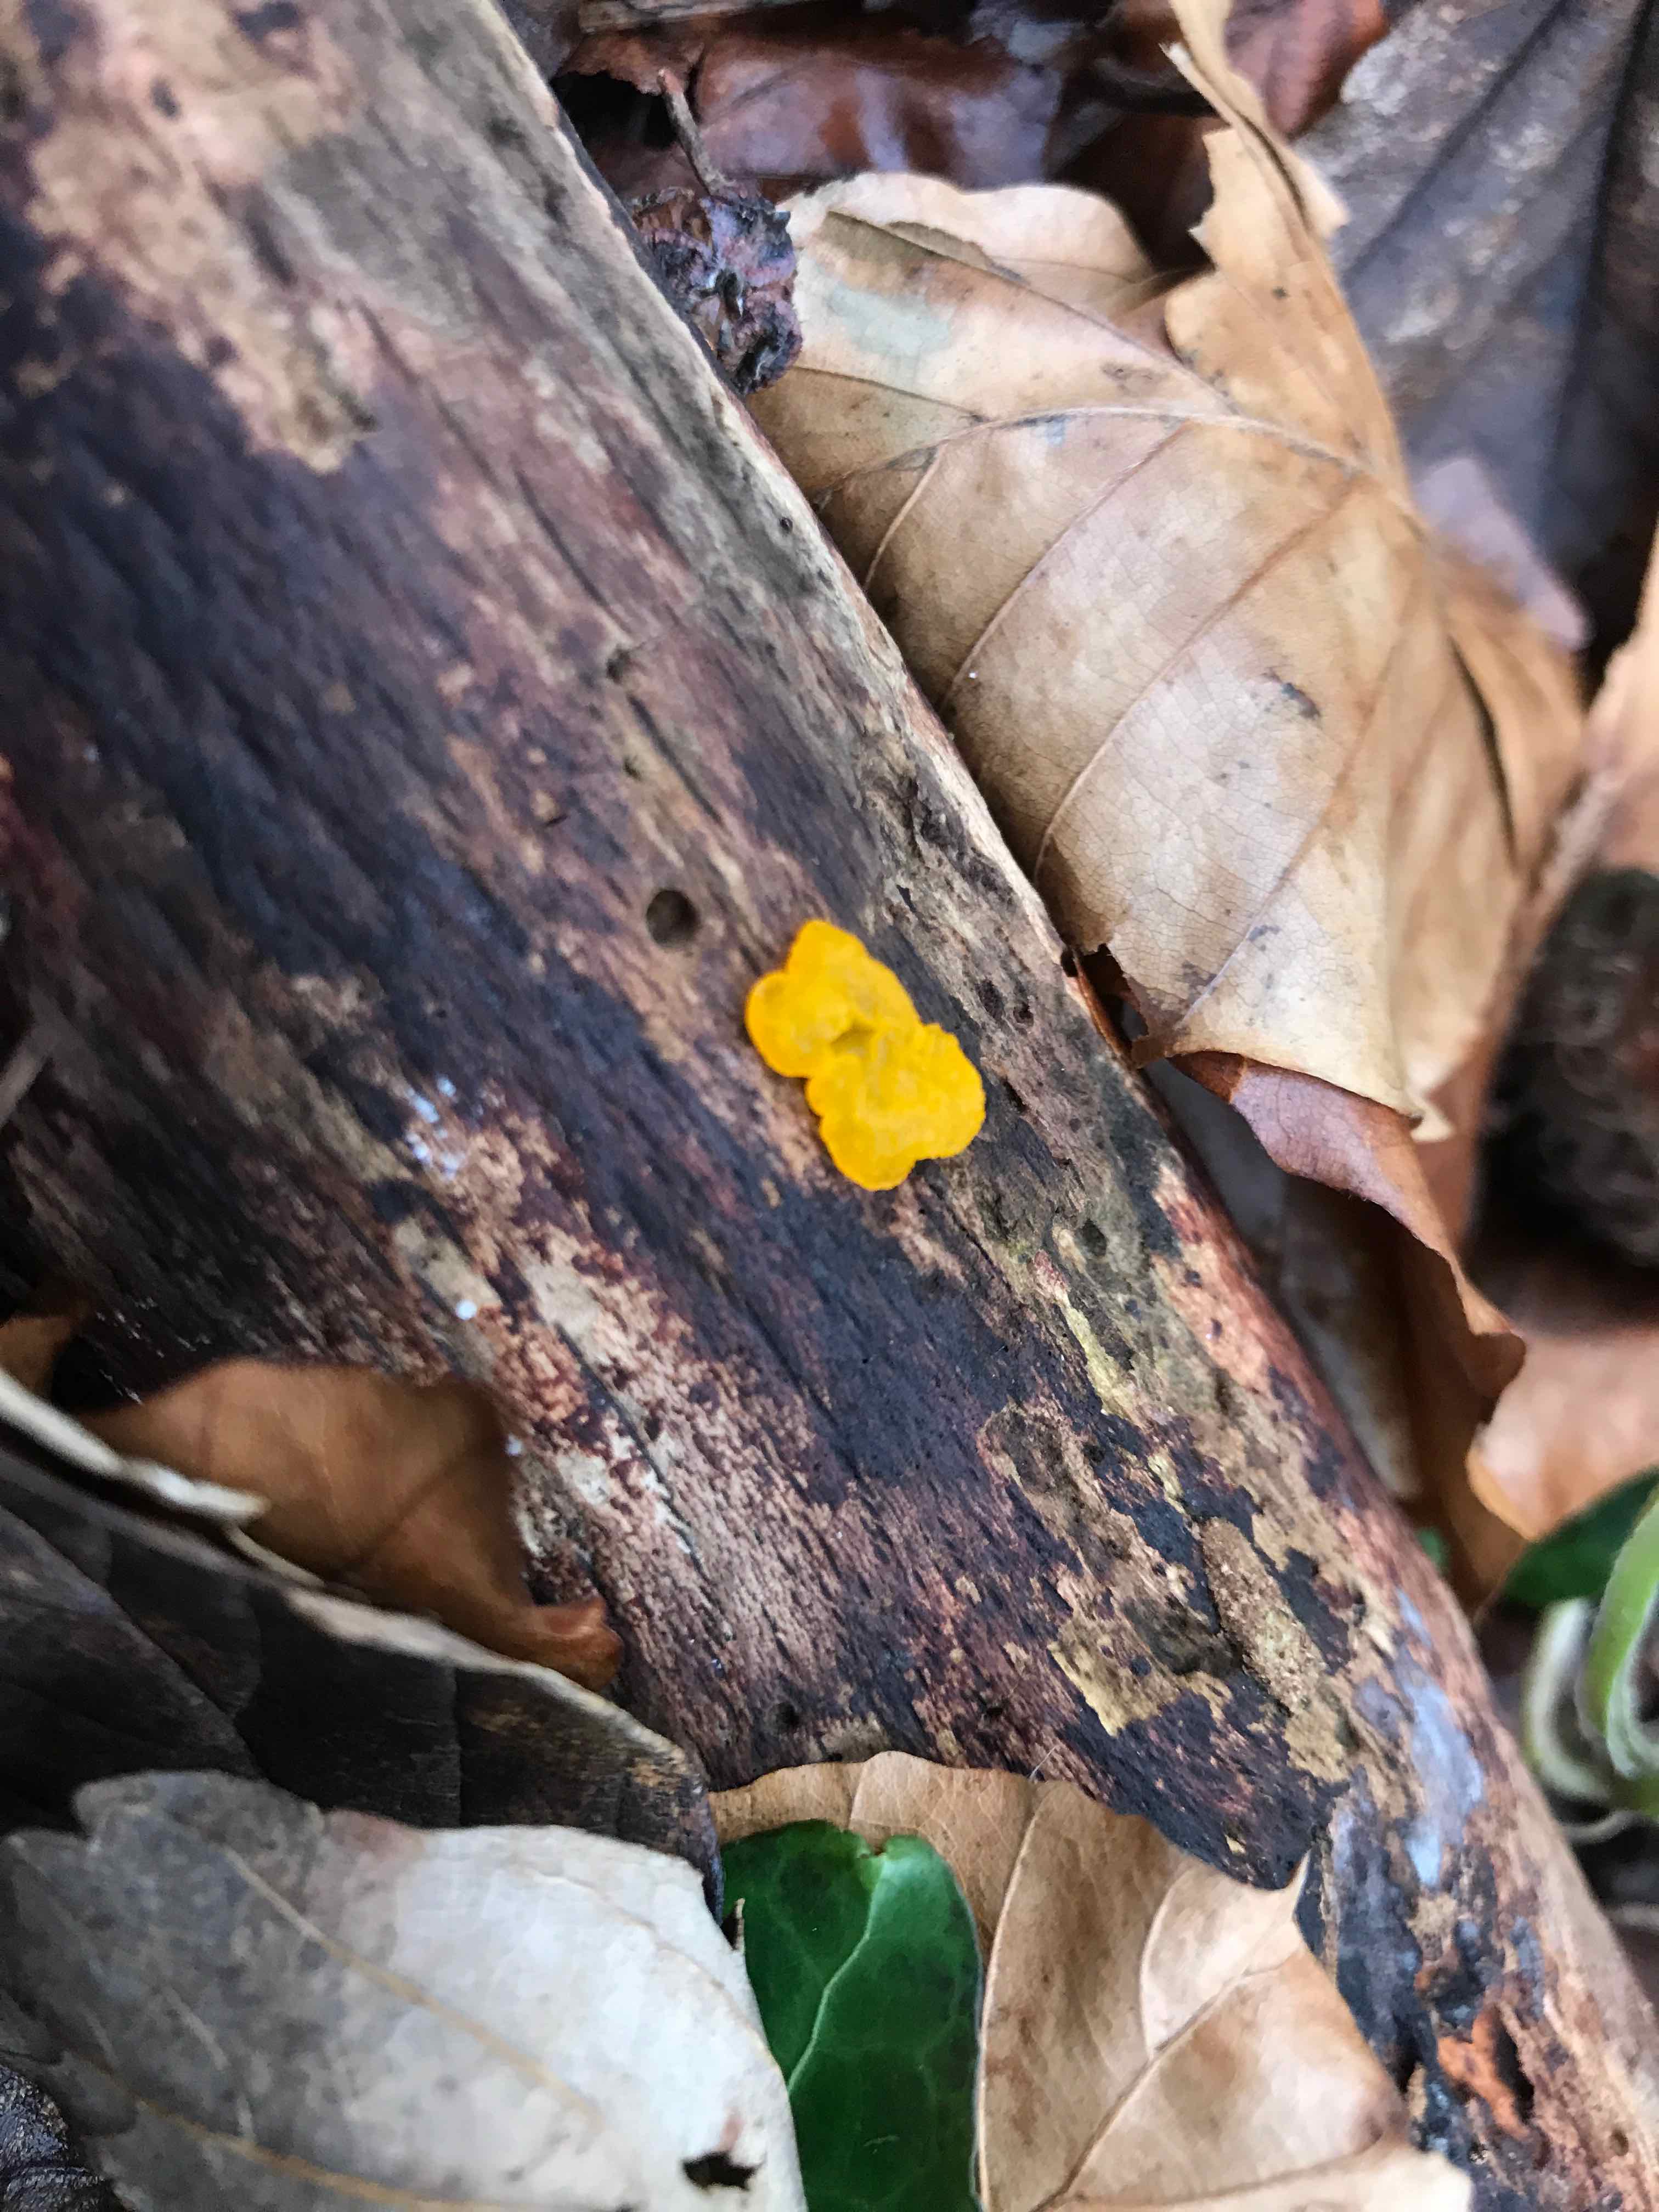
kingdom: Fungi
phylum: Basidiomycota
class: Tremellomycetes
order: Tremellales
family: Tremellaceae
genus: Tremella
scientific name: Tremella mesenterica
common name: gul bævresvamp
